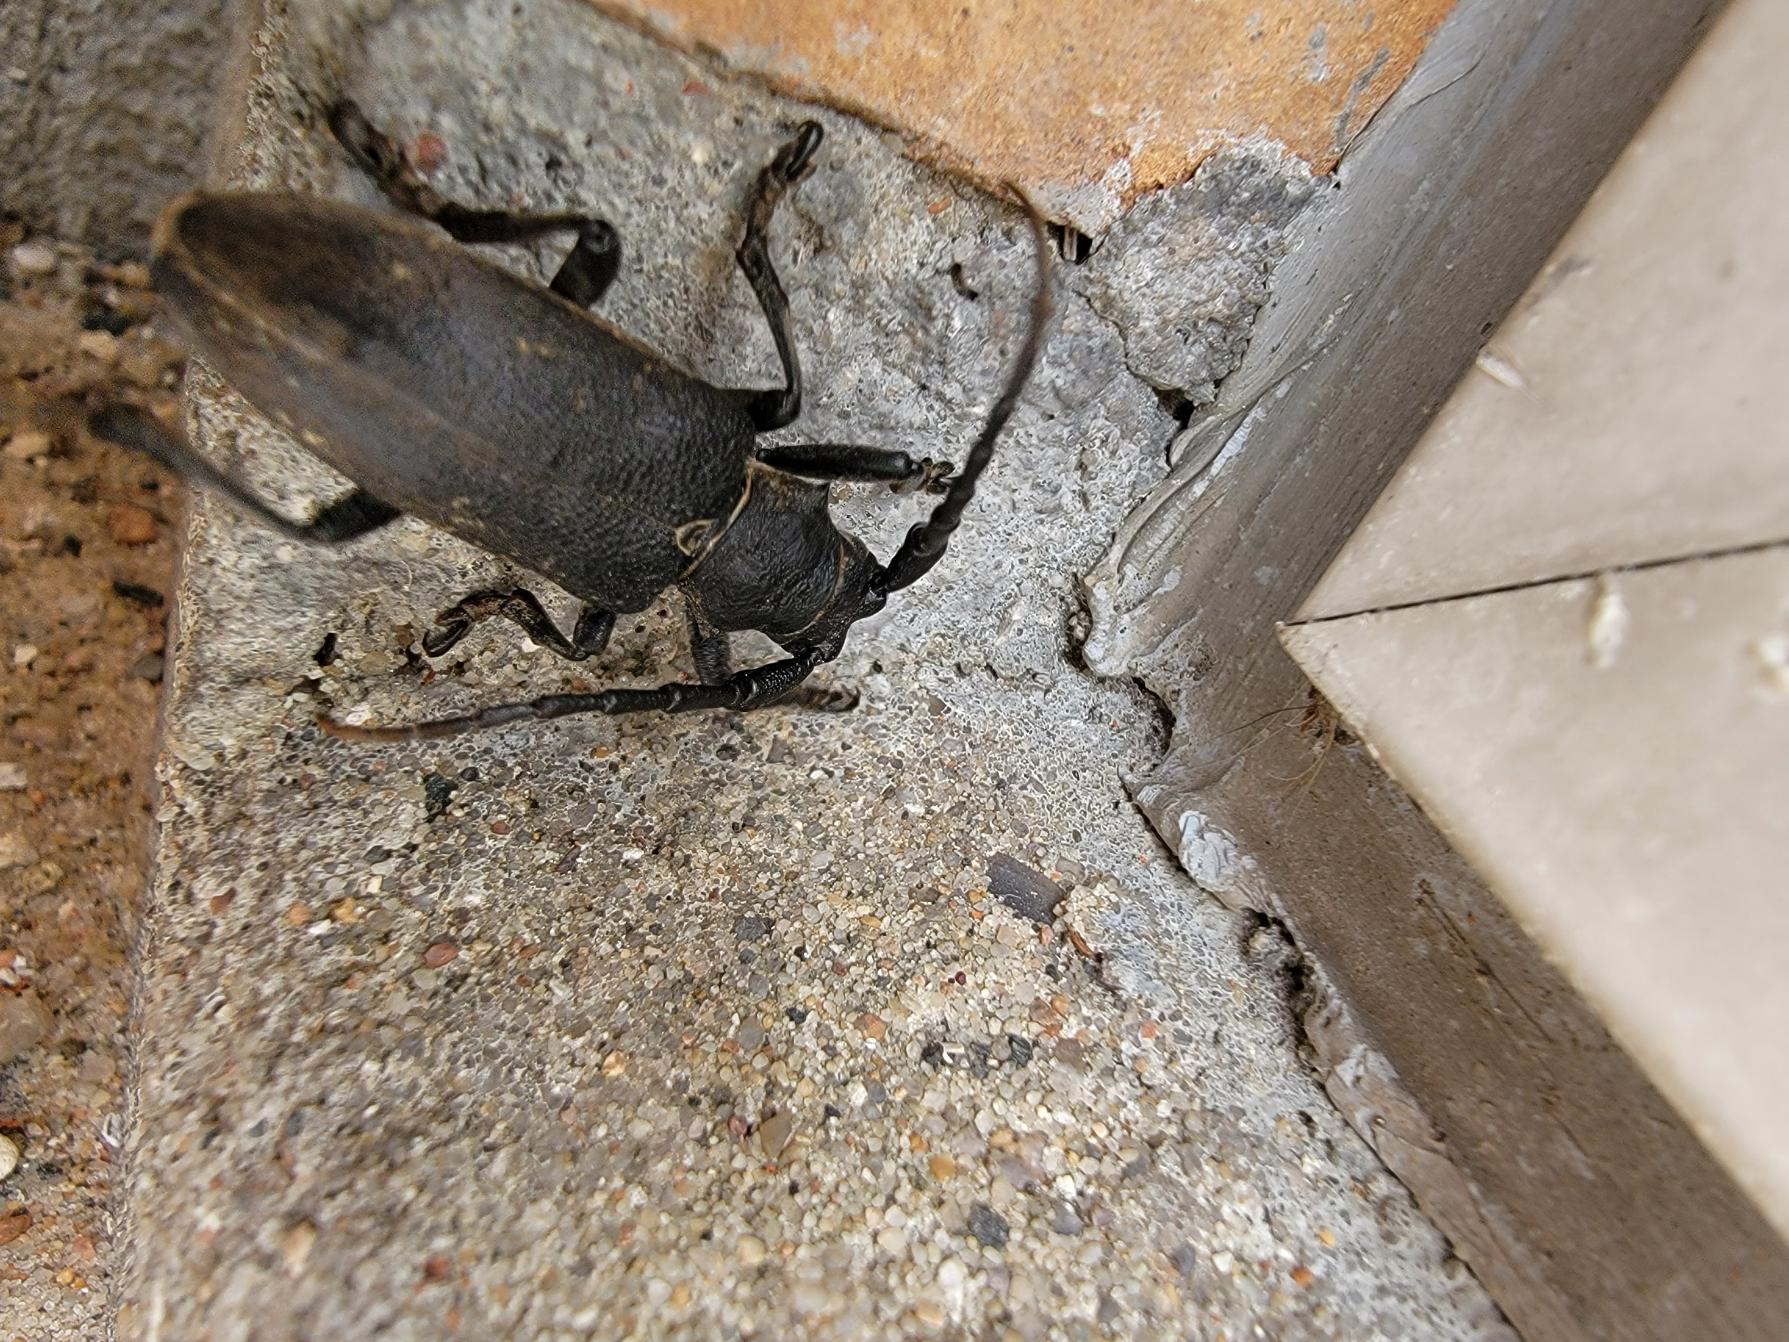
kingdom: Animalia
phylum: Arthropoda
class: Insecta
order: Coleoptera
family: Cerambycidae
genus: Lamia
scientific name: Lamia textor
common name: Væver
